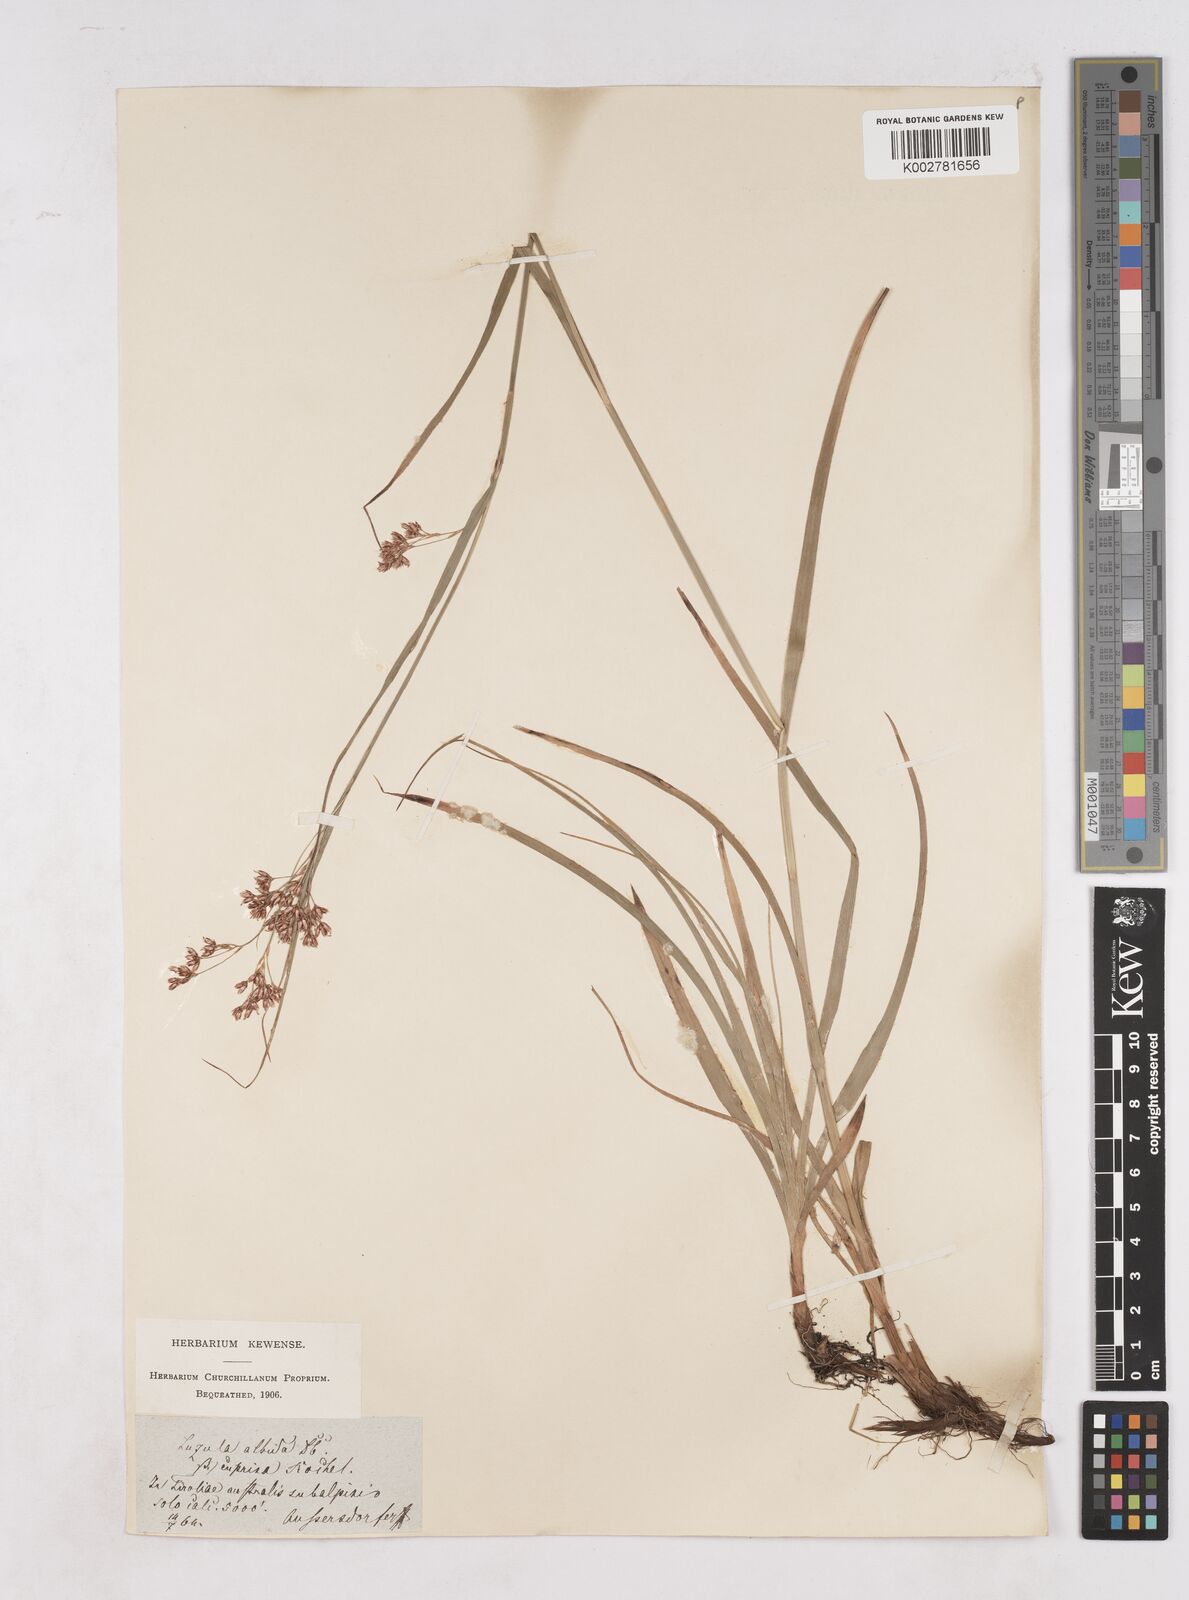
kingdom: Plantae
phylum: Tracheophyta
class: Liliopsida
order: Poales
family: Juncaceae
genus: Luzula
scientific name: Luzula luzuloides
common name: White wood-rush
